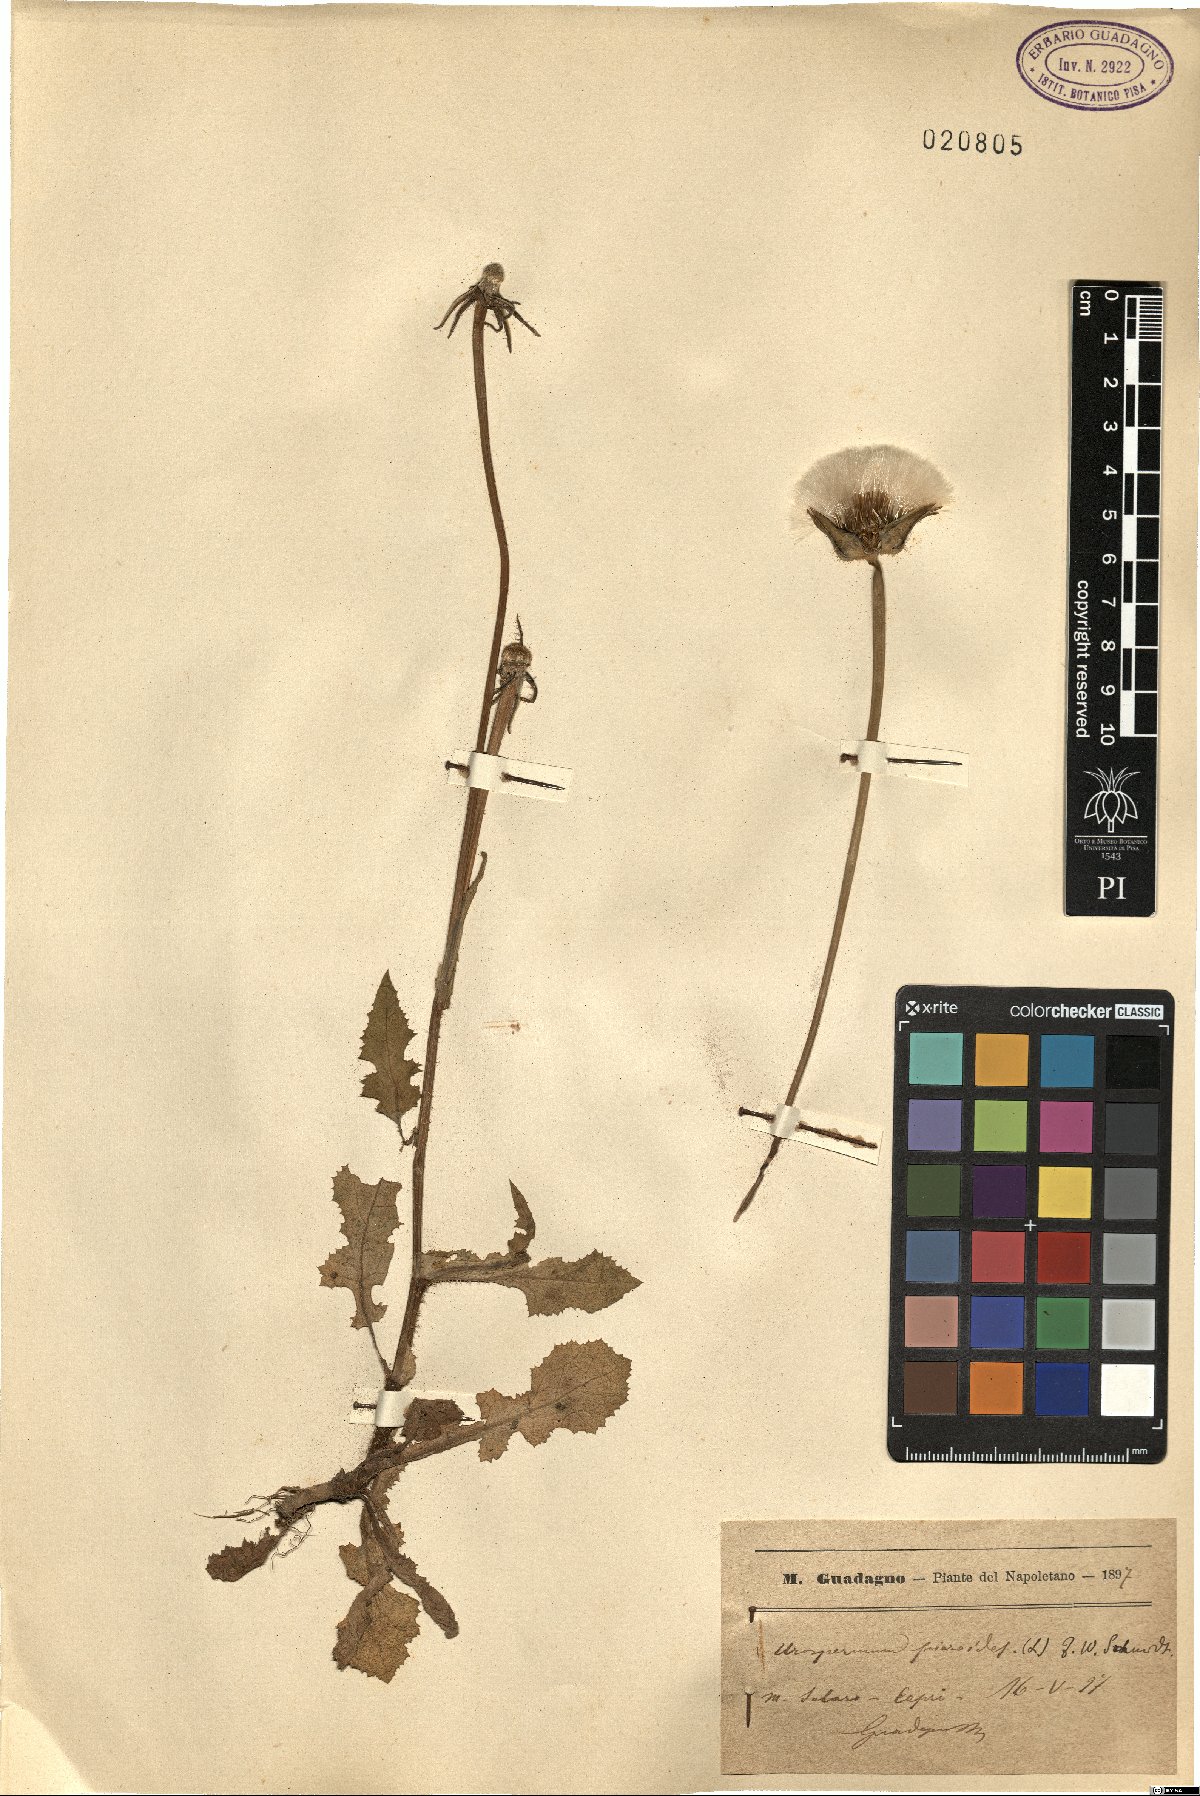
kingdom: Plantae
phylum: Tracheophyta
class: Magnoliopsida
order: Asterales
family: Asteraceae
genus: Urospermum
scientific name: Urospermum picroides
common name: False hawkbit
